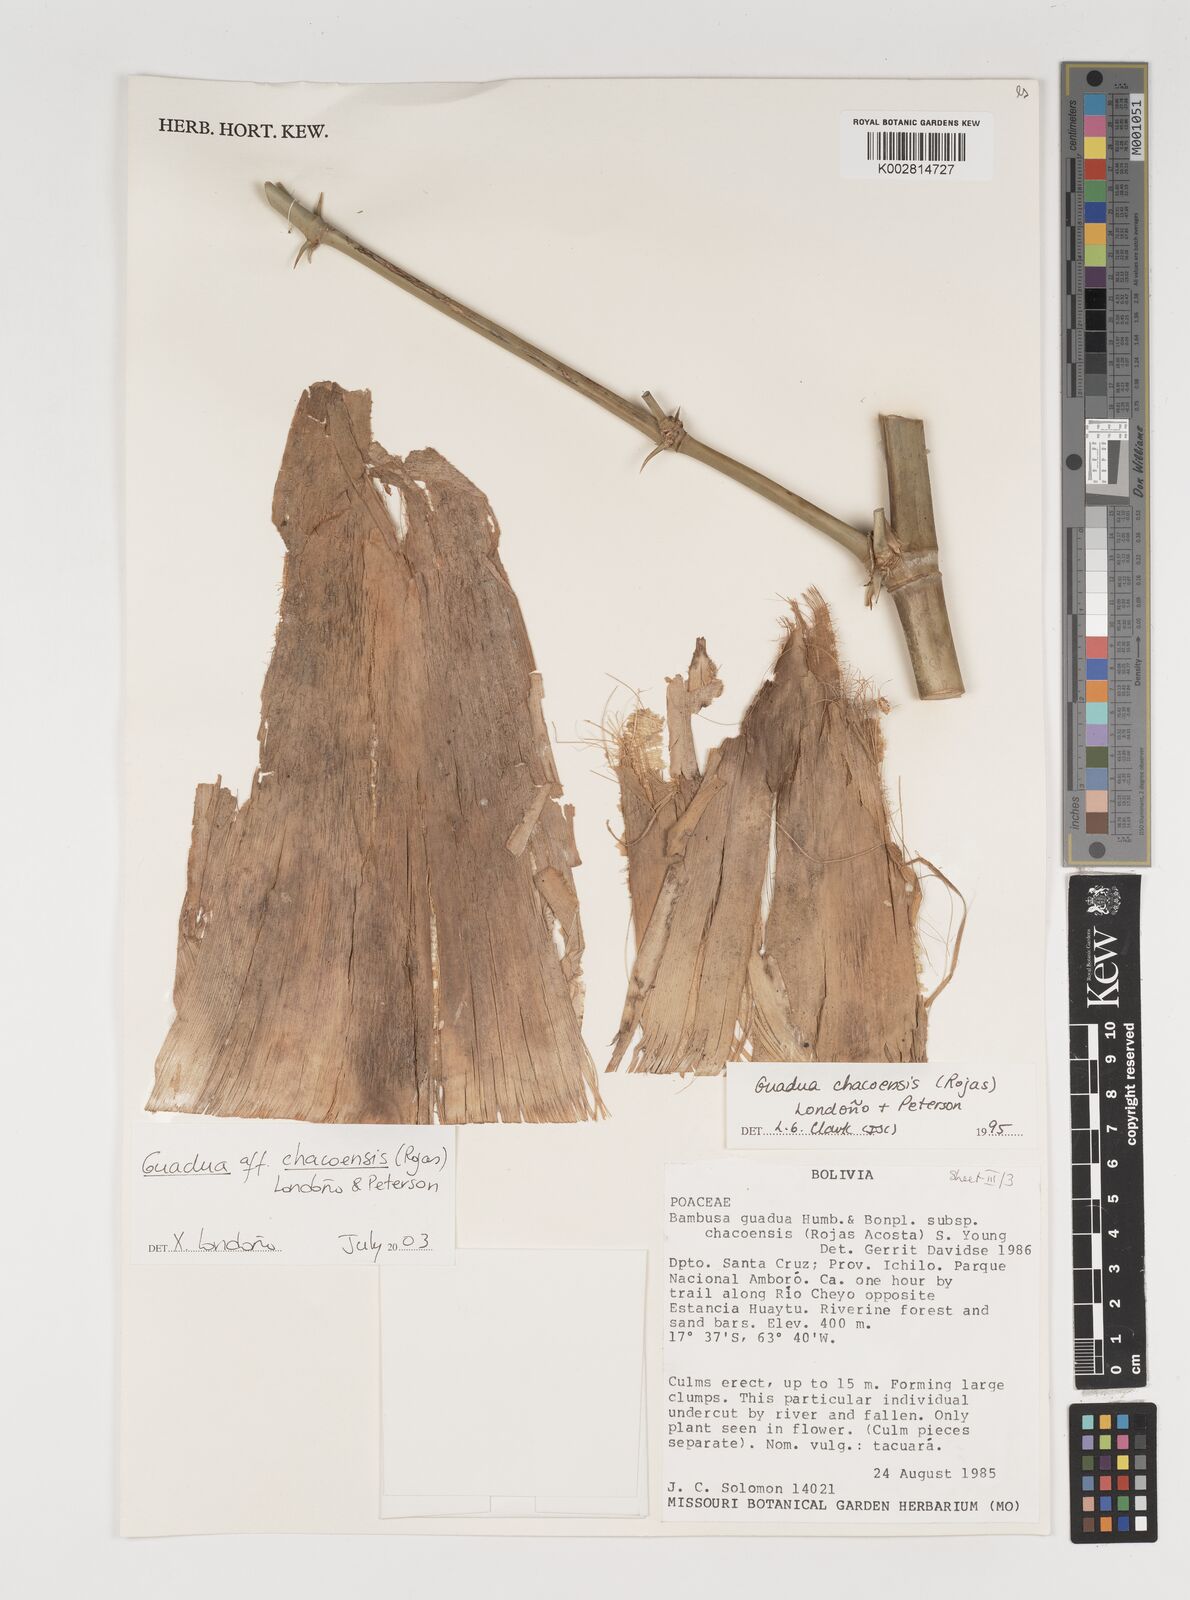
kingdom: Plantae
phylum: Tracheophyta
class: Liliopsida
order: Poales
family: Poaceae
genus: Guadua
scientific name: Guadua chacoensis
